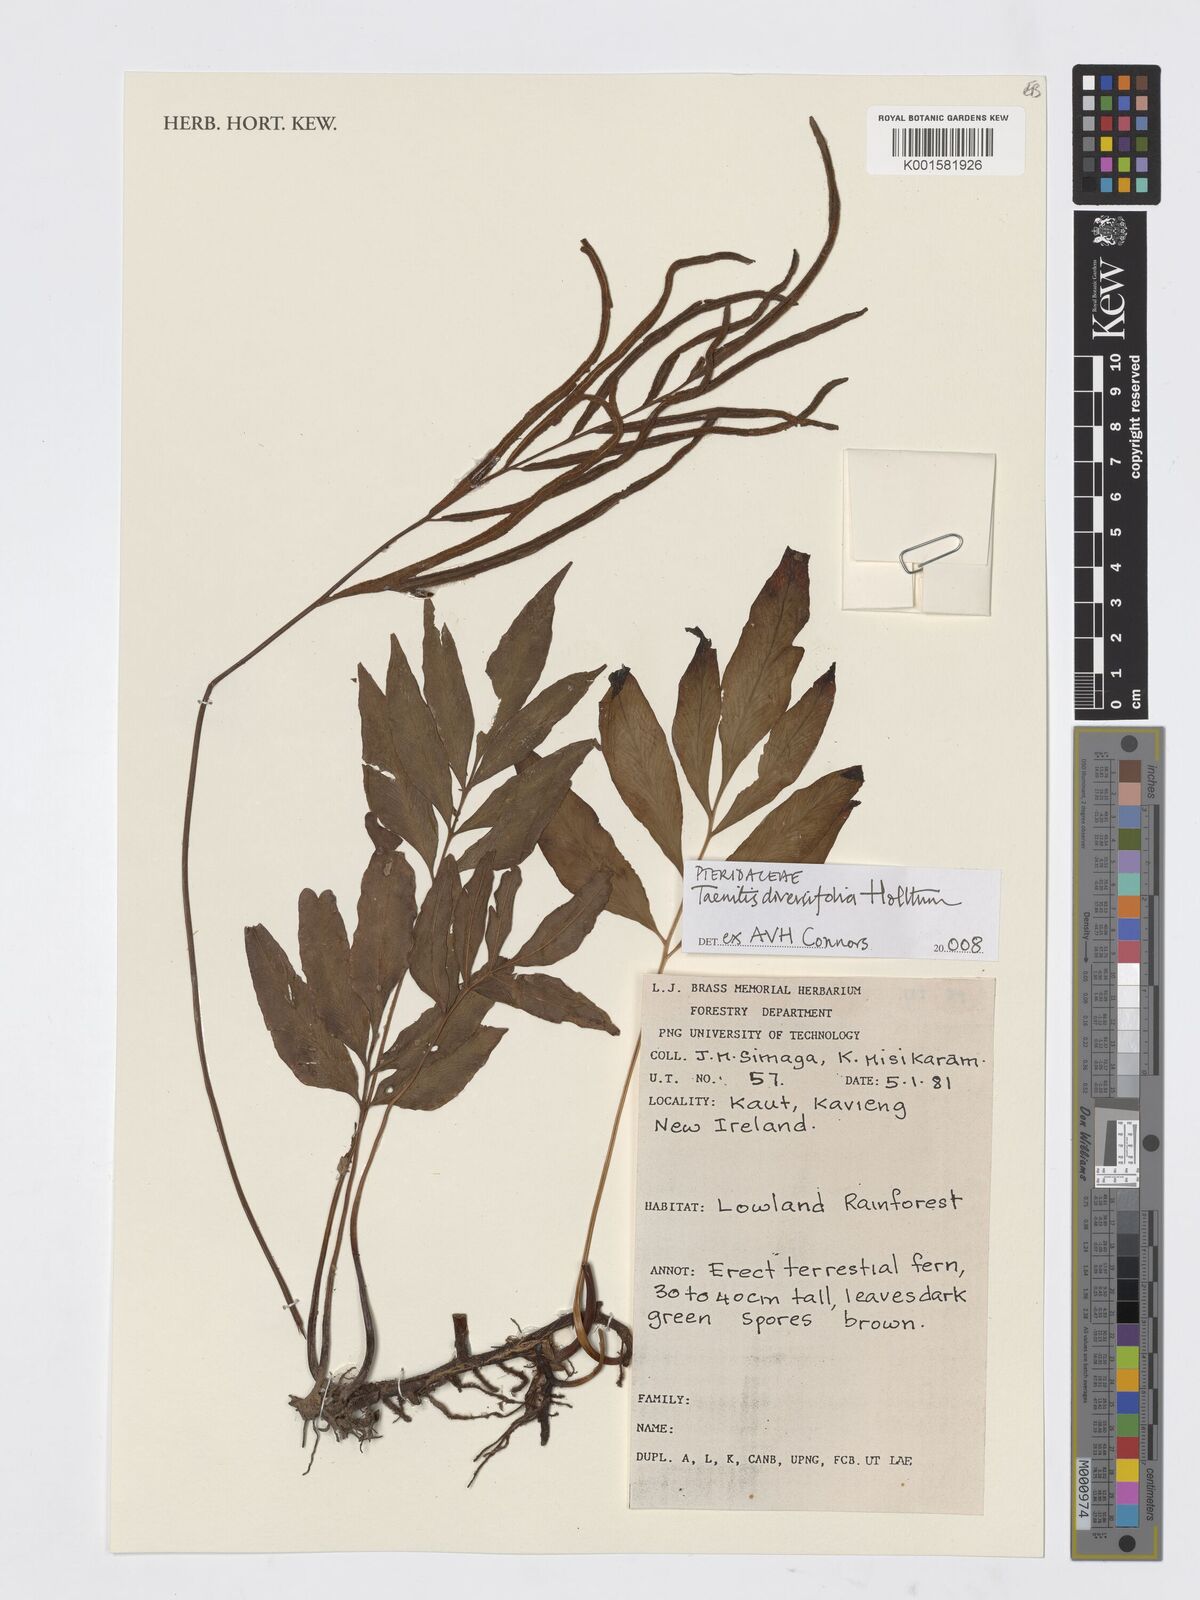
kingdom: Plantae
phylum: Tracheophyta
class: Polypodiopsida
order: Polypodiales
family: Pteridaceae
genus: Taenitis
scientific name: Taenitis diversifolia
